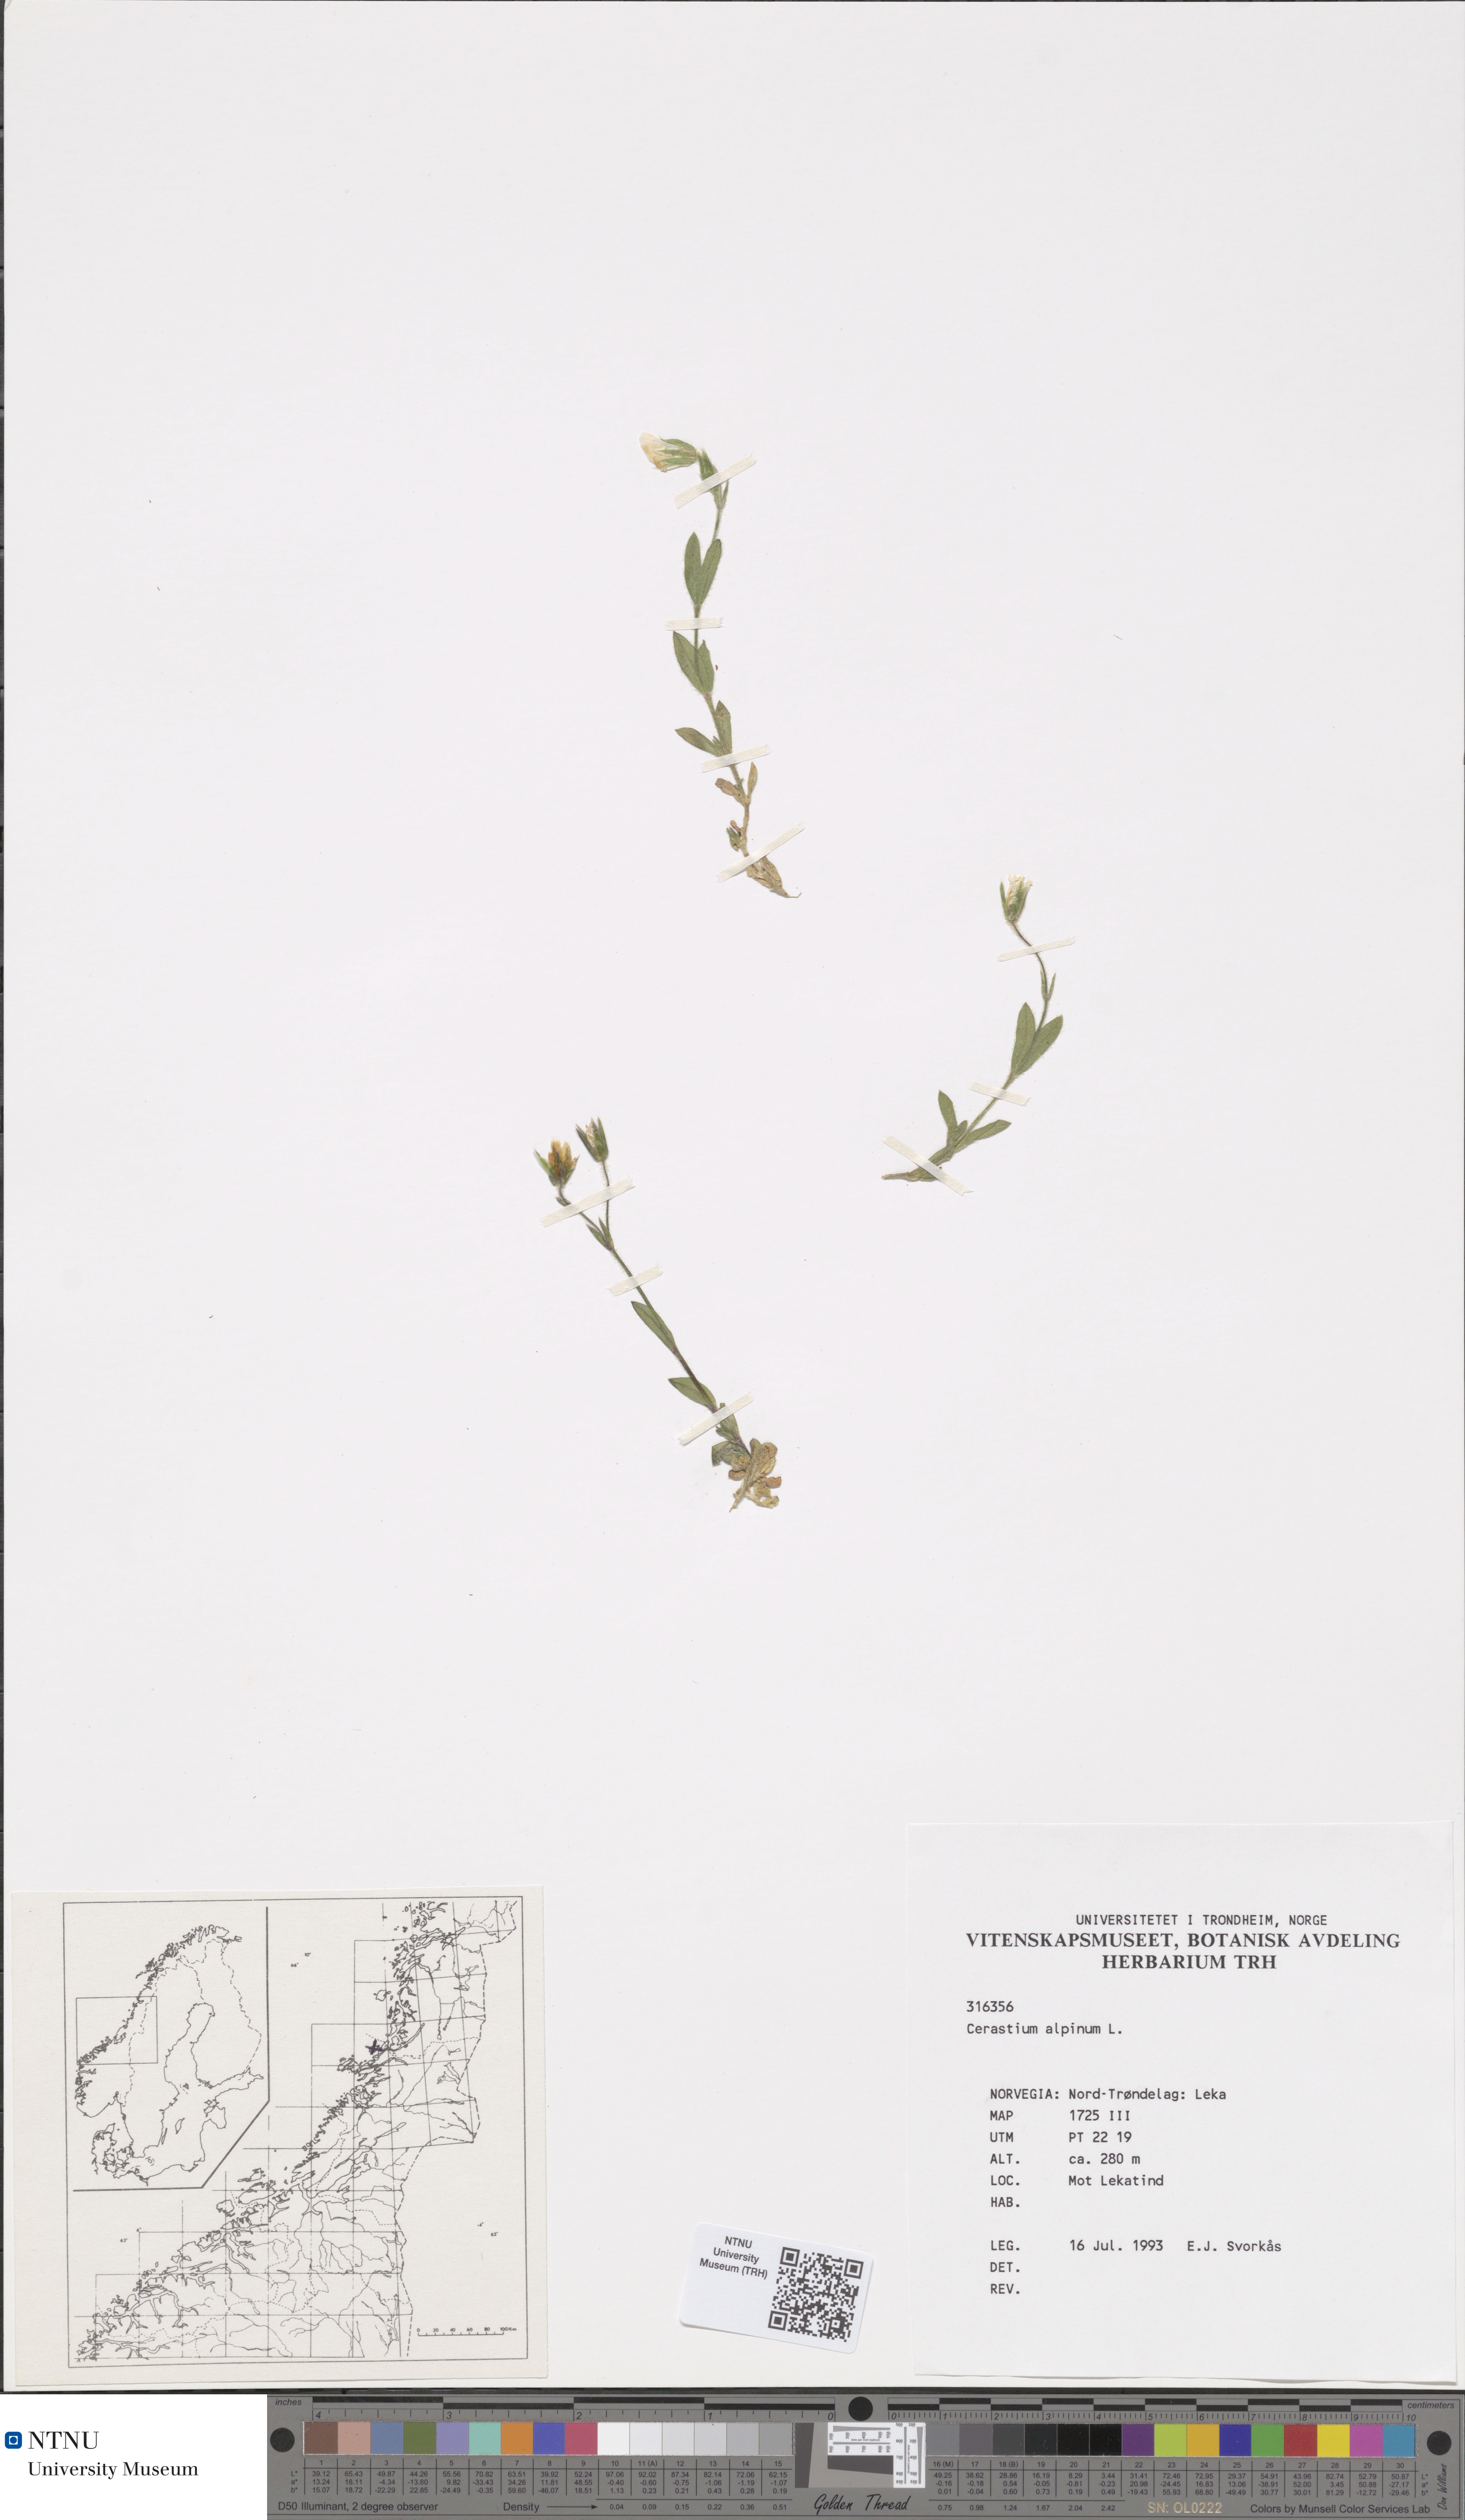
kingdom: Plantae
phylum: Tracheophyta
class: Magnoliopsida
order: Caryophyllales
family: Caryophyllaceae
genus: Cerastium
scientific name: Cerastium alpinum
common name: Alpine mouse-ear
